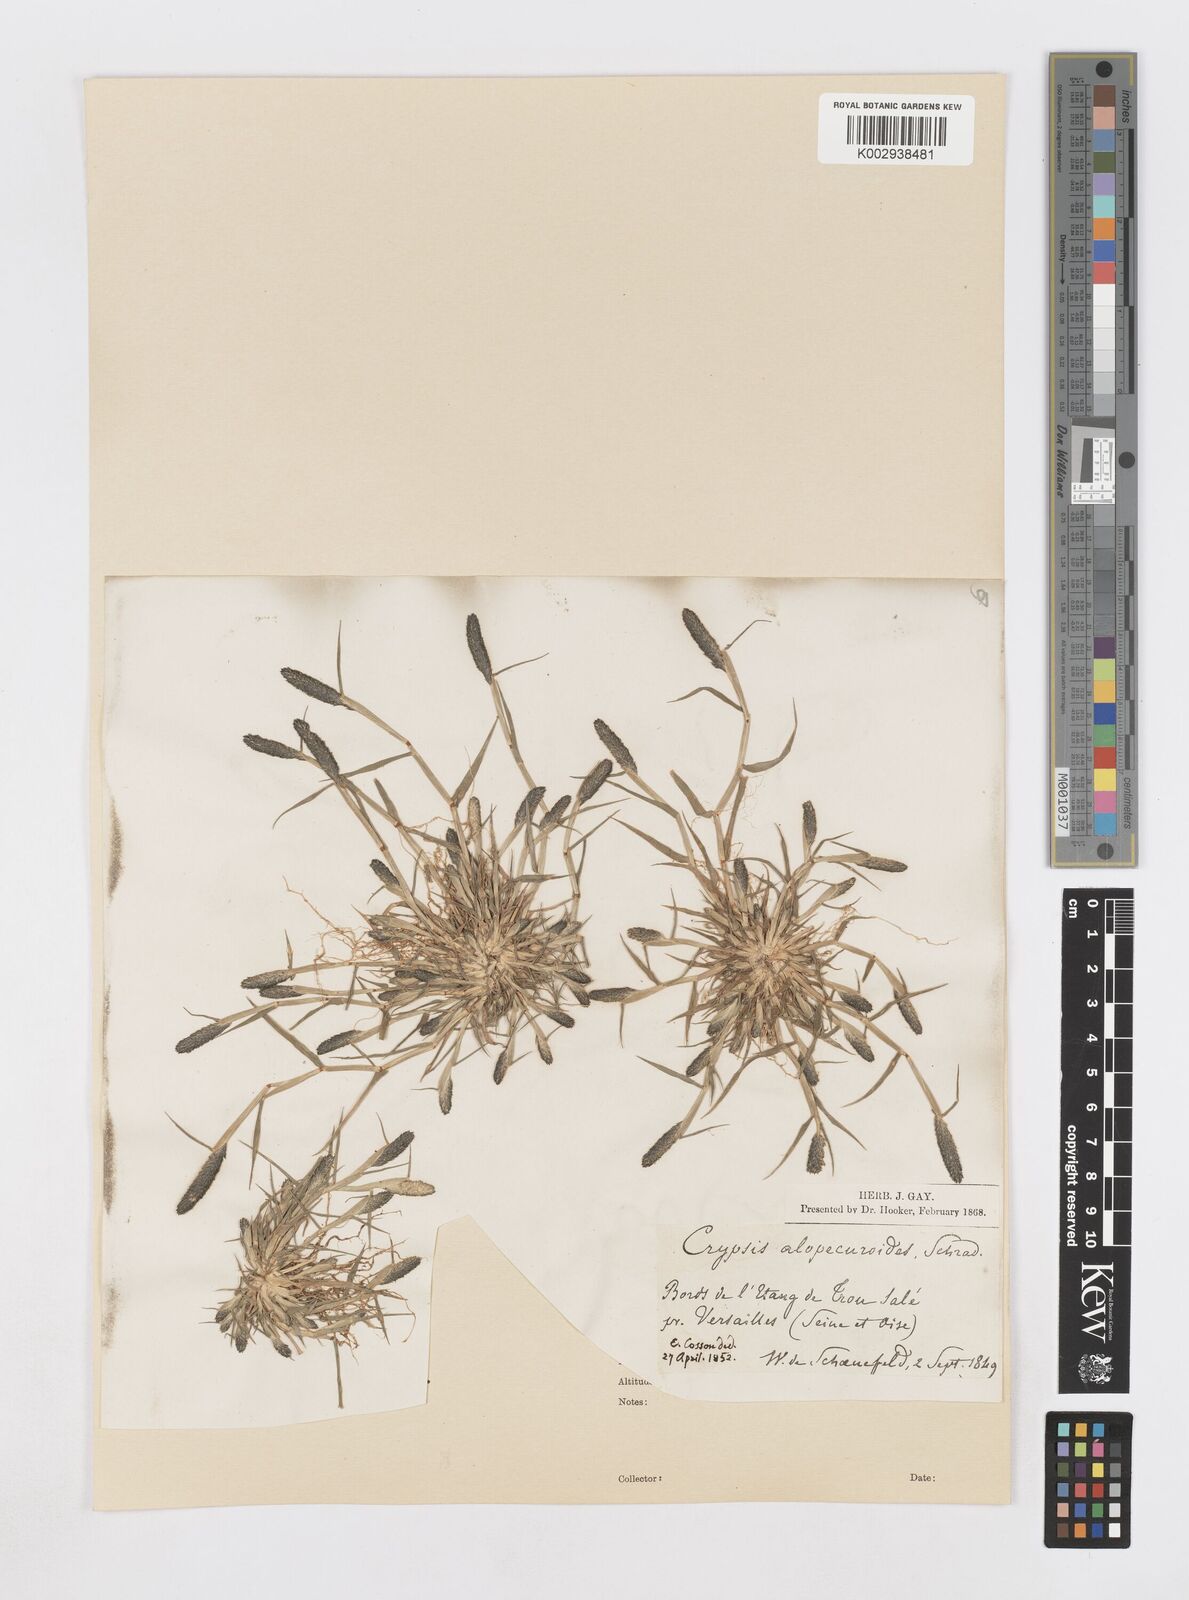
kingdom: Plantae
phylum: Tracheophyta
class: Liliopsida
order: Poales
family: Poaceae
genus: Sporobolus
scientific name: Sporobolus alopecuroides
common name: Foxtail pricklegrass
